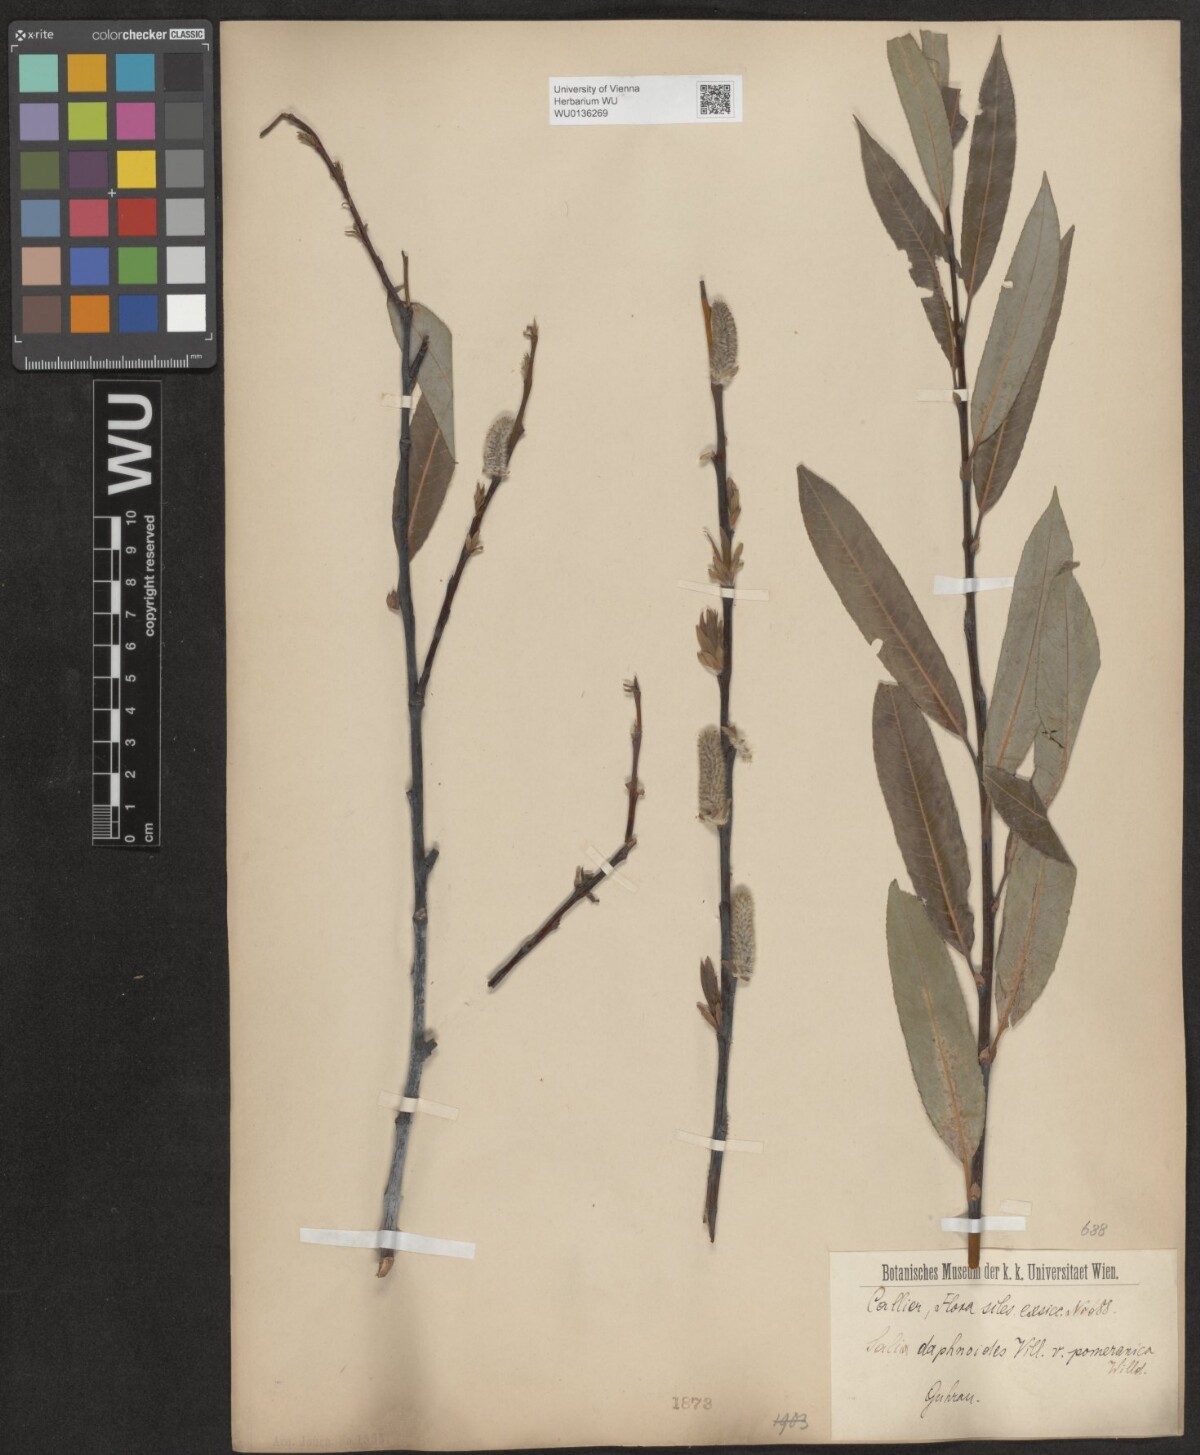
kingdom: Plantae
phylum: Tracheophyta
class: Magnoliopsida
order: Malpighiales
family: Salicaceae
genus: Salix
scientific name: Salix daphnoides
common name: European violet-willow
